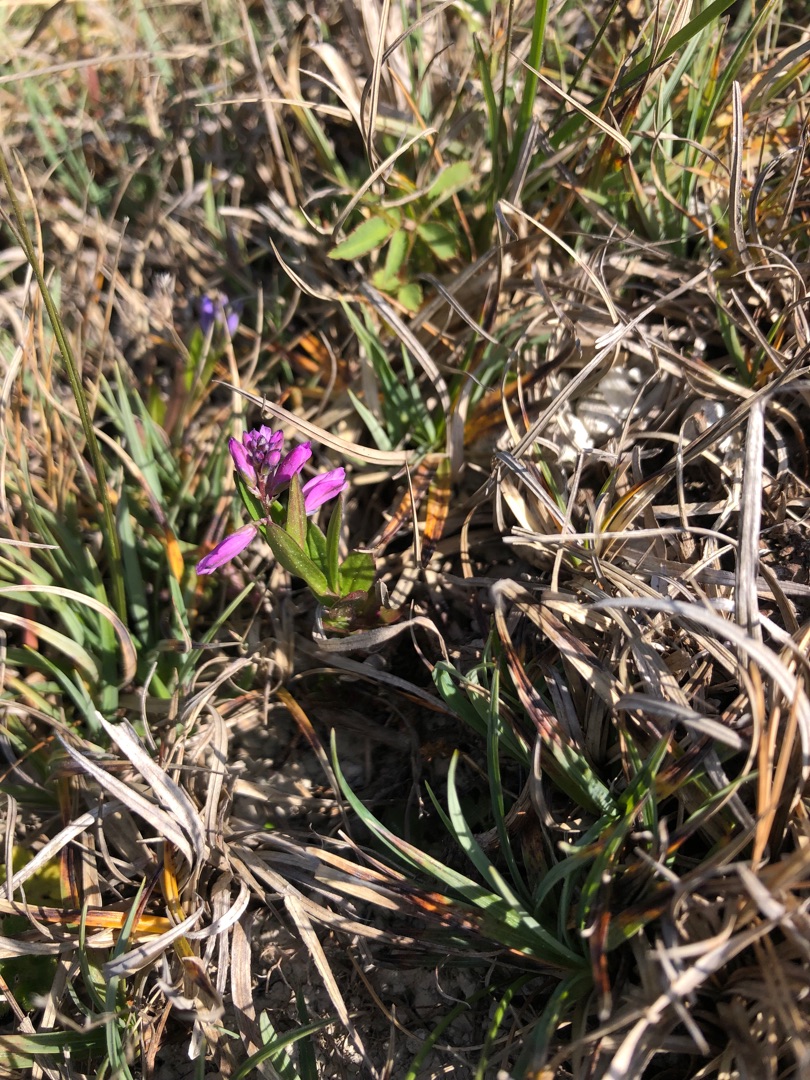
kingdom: Plantae
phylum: Tracheophyta
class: Magnoliopsida
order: Fabales
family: Polygalaceae
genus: Polygala
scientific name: Polygala vulgaris
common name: Almindelig mælkeurt
